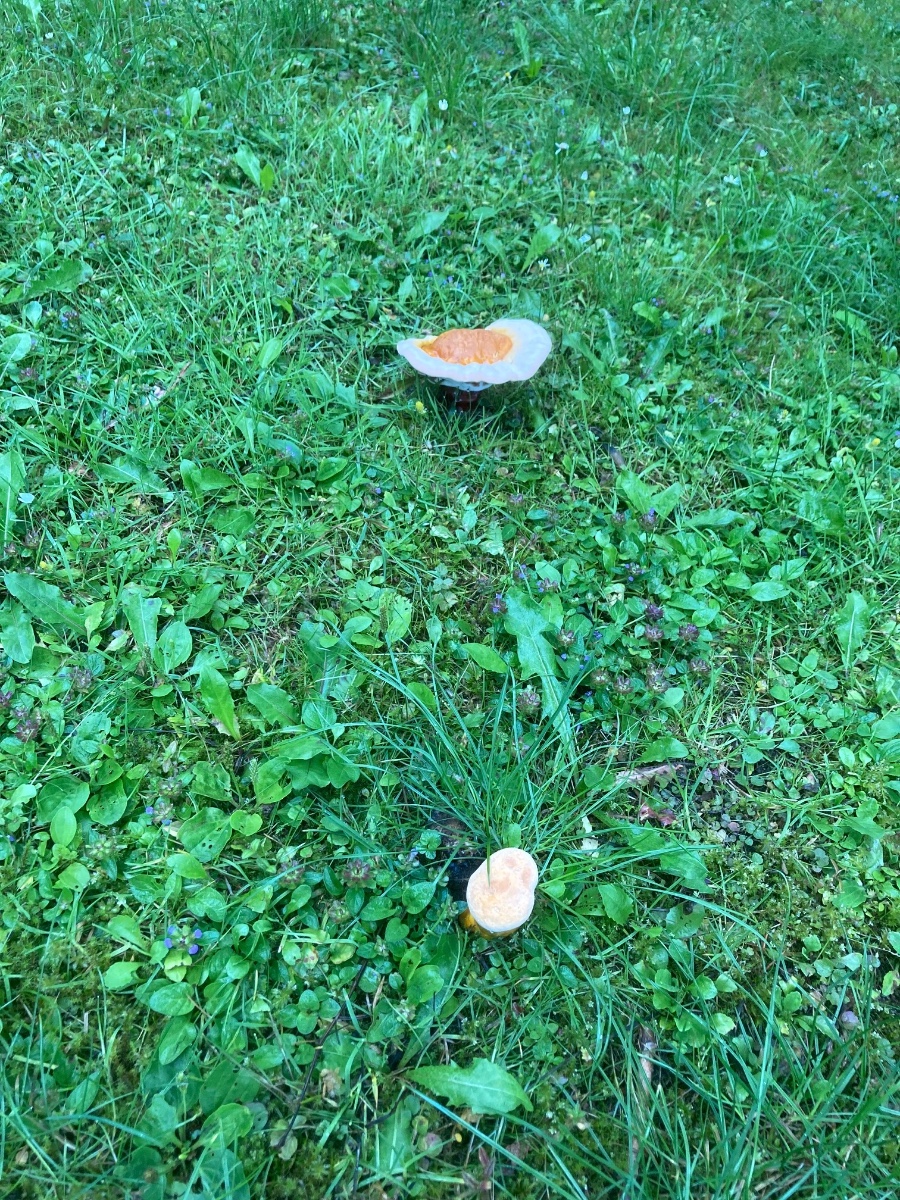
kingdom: Fungi
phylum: Basidiomycota
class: Agaricomycetes
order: Polyporales
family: Polyporaceae
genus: Ganoderma
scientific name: Ganoderma lucidum
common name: skinnende lakporesvamp
